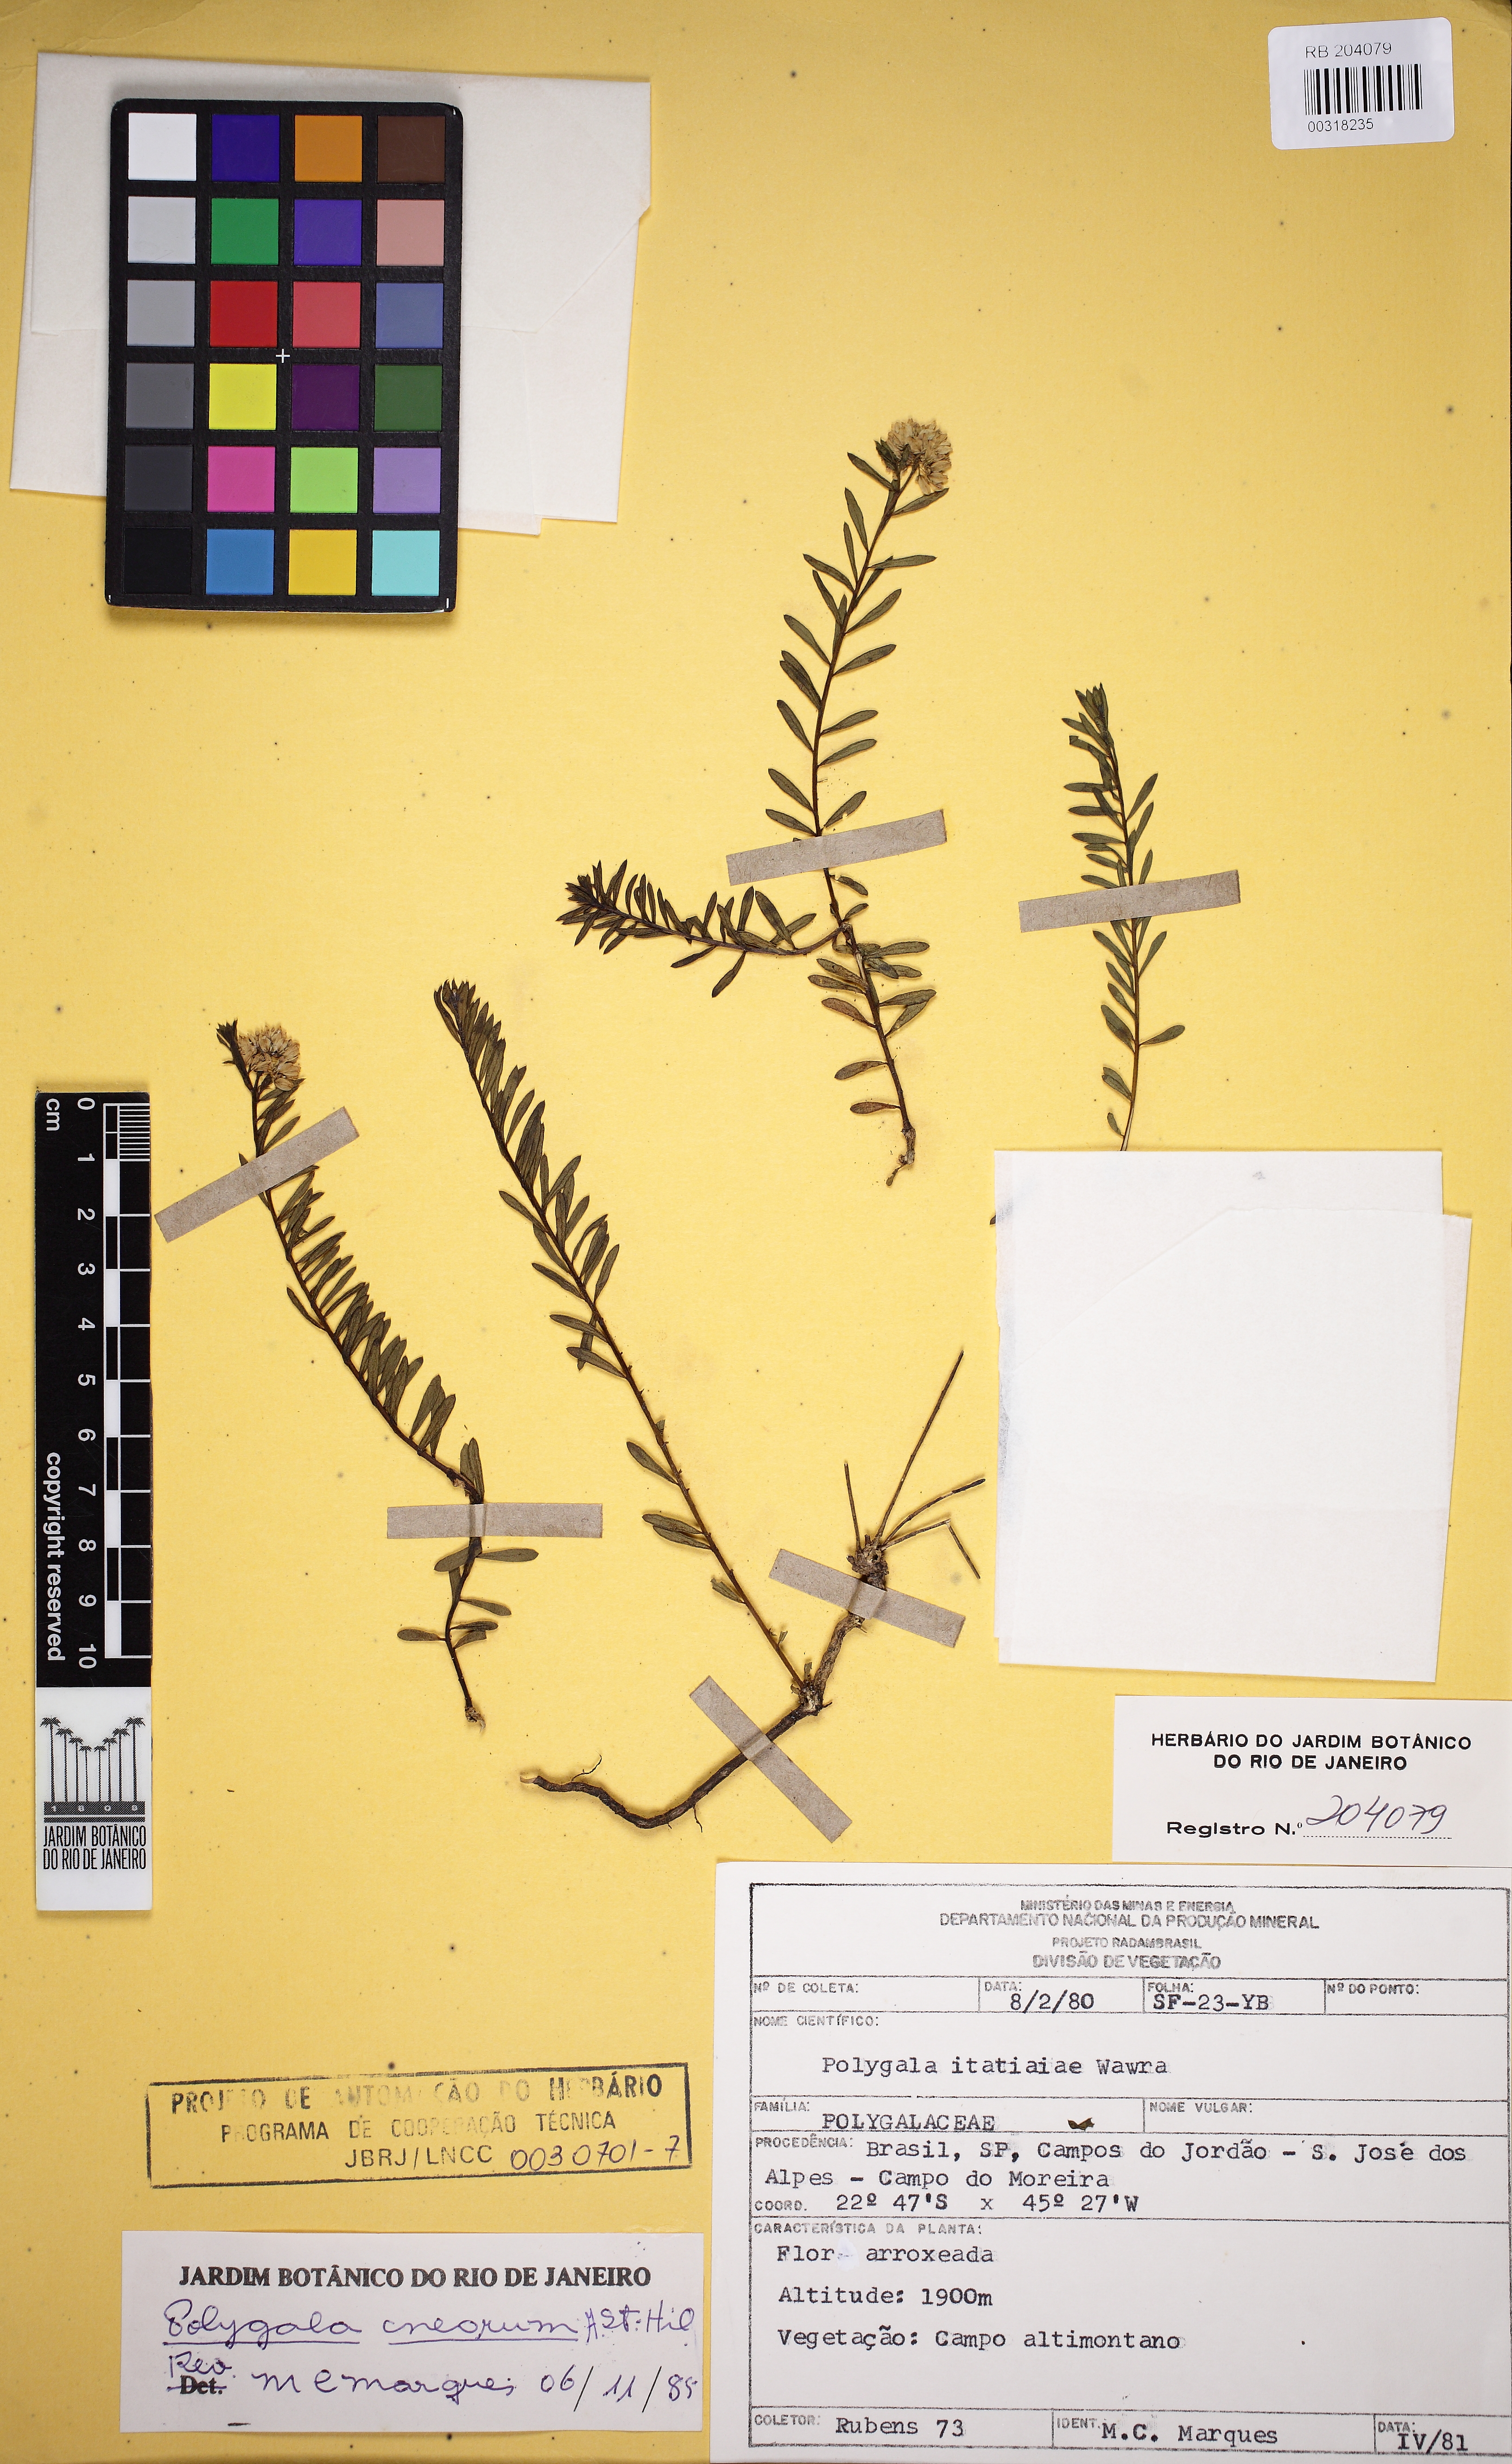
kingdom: Plantae
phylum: Tracheophyta
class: Magnoliopsida
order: Fabales
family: Polygalaceae
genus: Polygala
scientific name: Polygala cneorum
